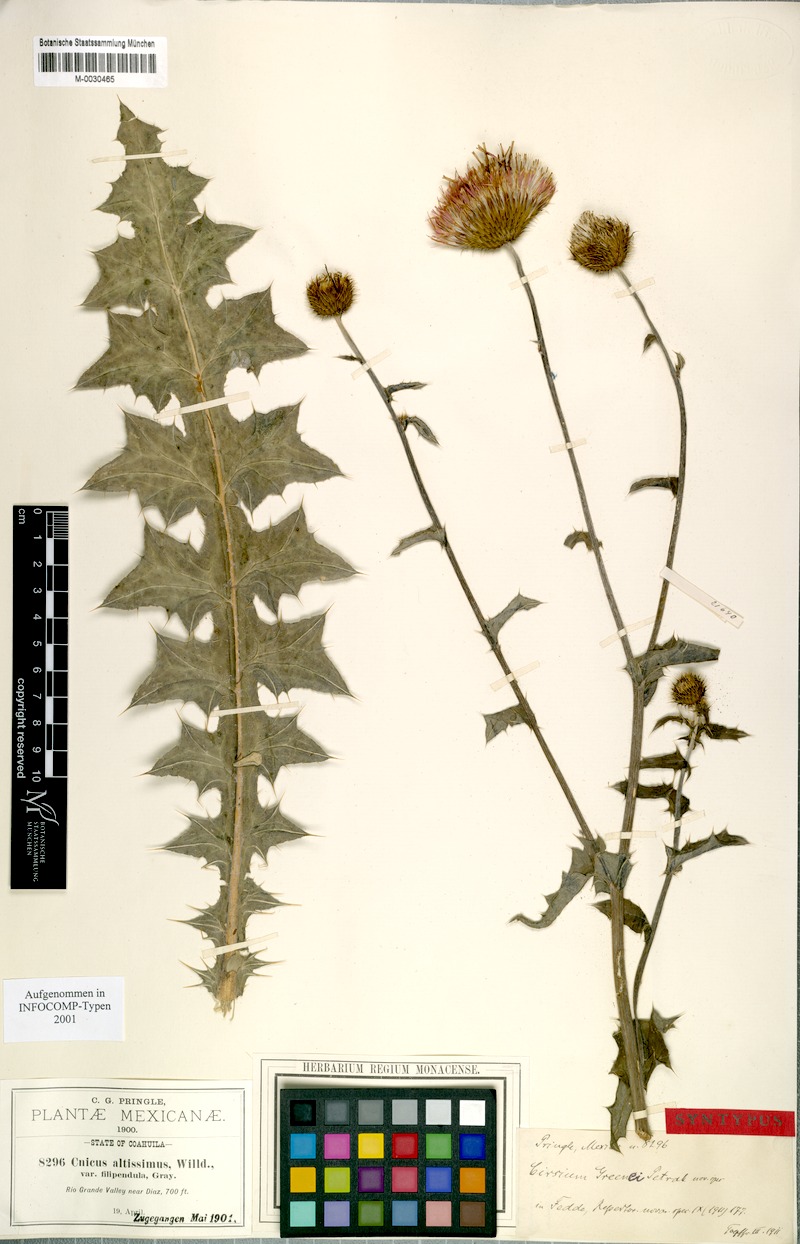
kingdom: Plantae
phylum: Tracheophyta
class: Magnoliopsida
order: Asterales
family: Asteraceae
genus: Cirsium
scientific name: Cirsium texanum
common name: Texas purple thistle
